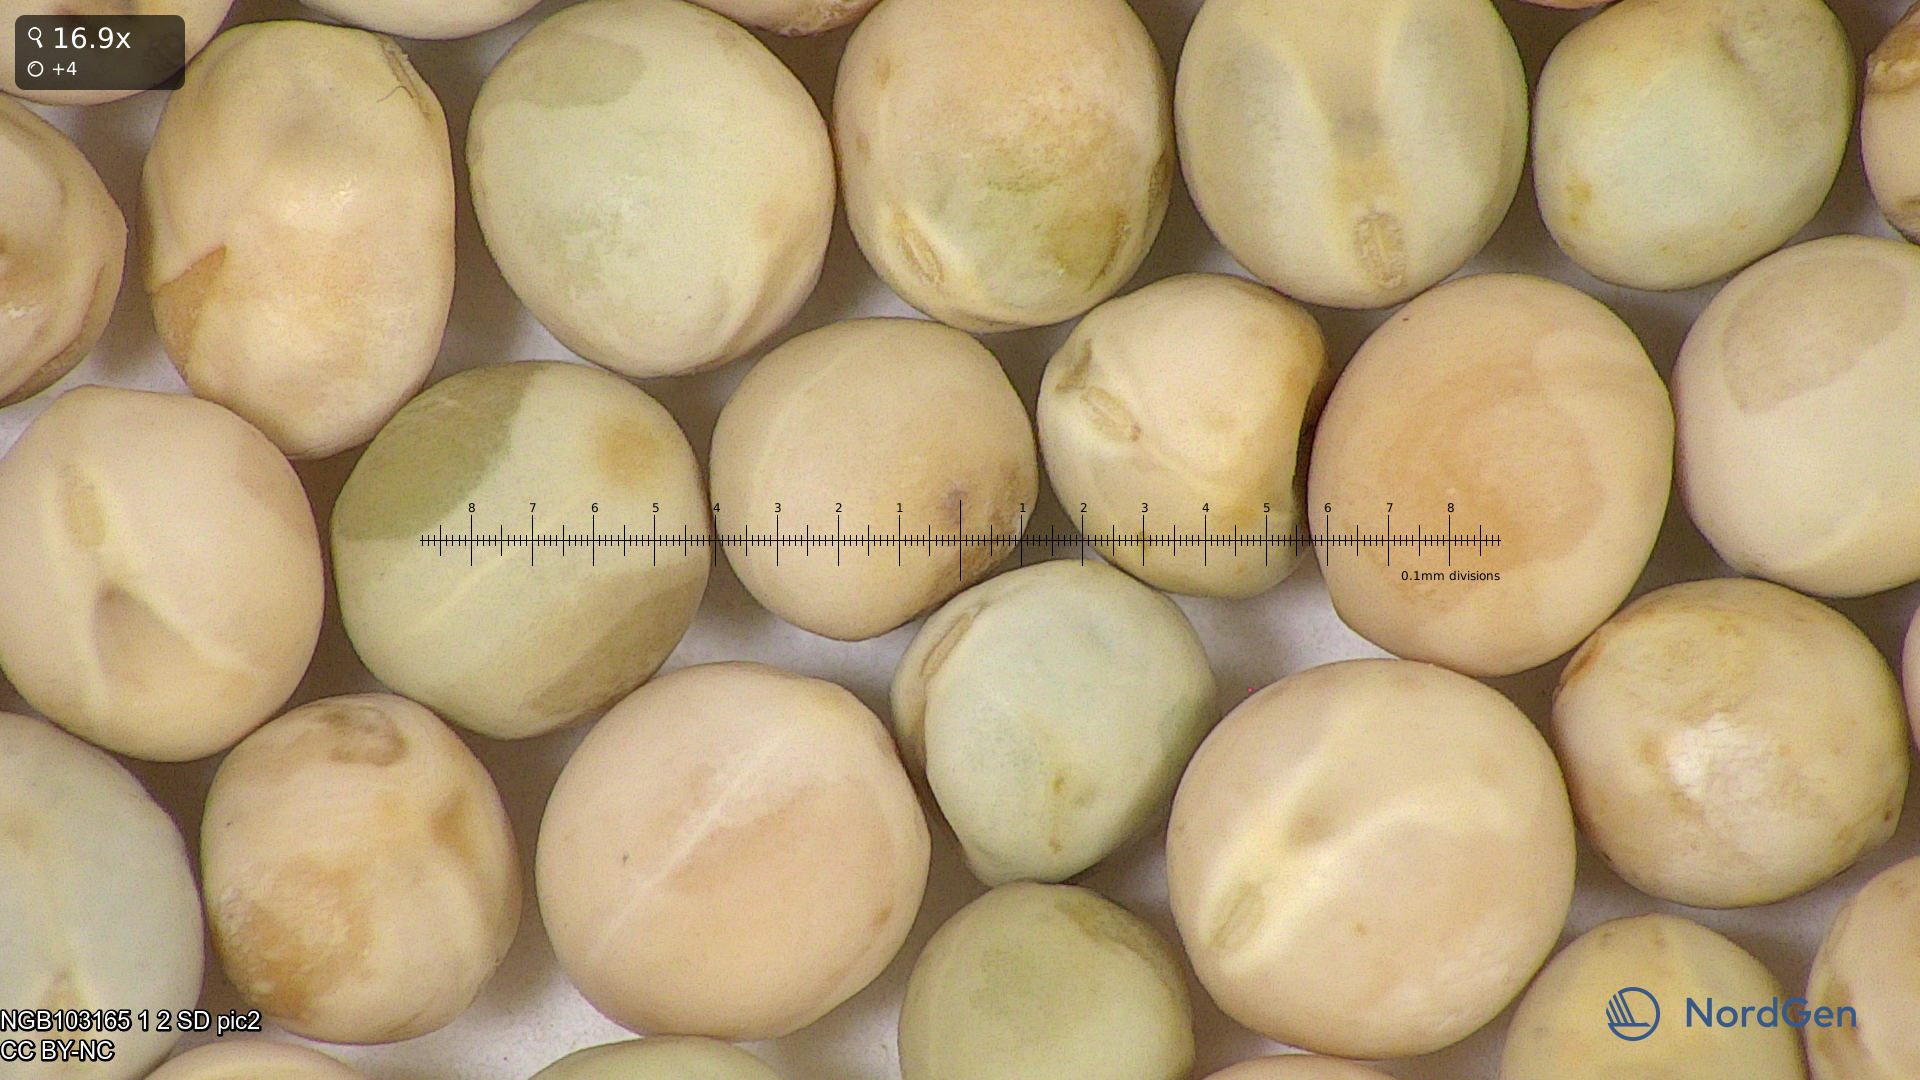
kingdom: Plantae
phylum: Tracheophyta
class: Magnoliopsida
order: Fabales
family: Fabaceae
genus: Lathyrus
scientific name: Lathyrus oleraceus
